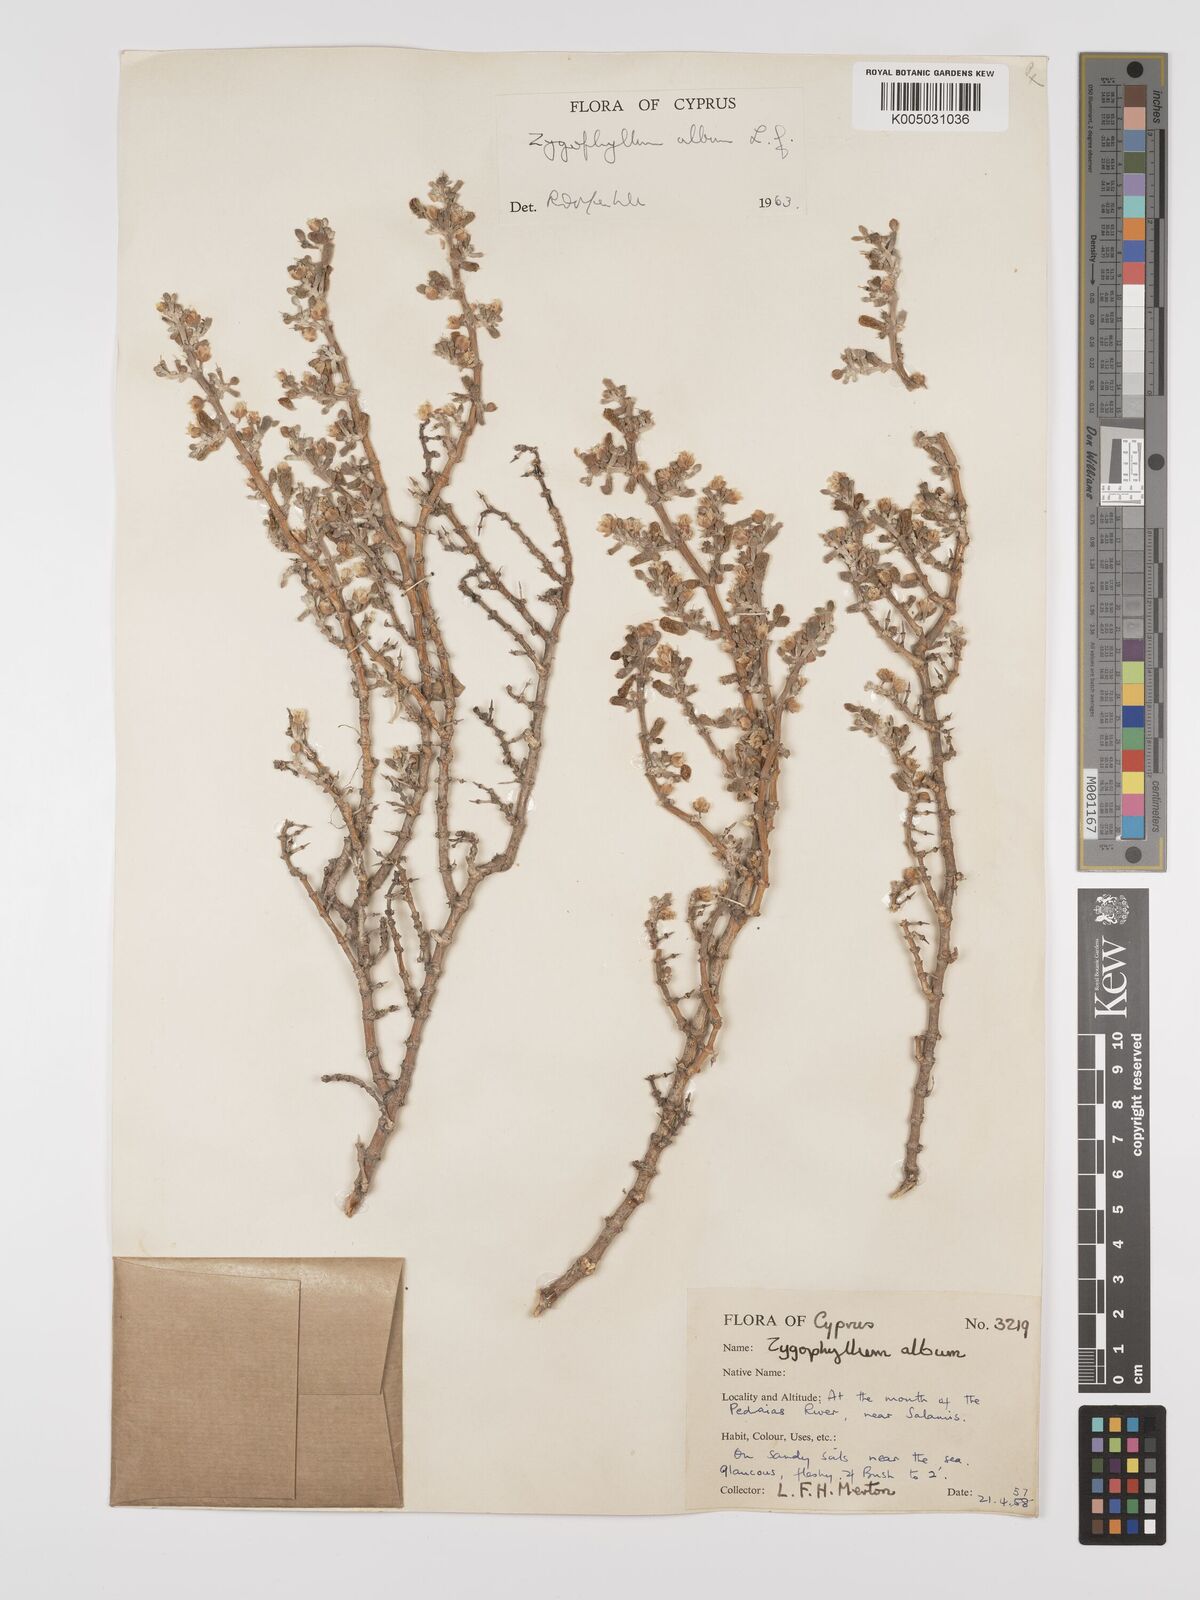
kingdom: Plantae
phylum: Tracheophyta
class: Magnoliopsida
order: Zygophyllales
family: Zygophyllaceae
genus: Zygophyllum
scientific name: Zygophyllum
